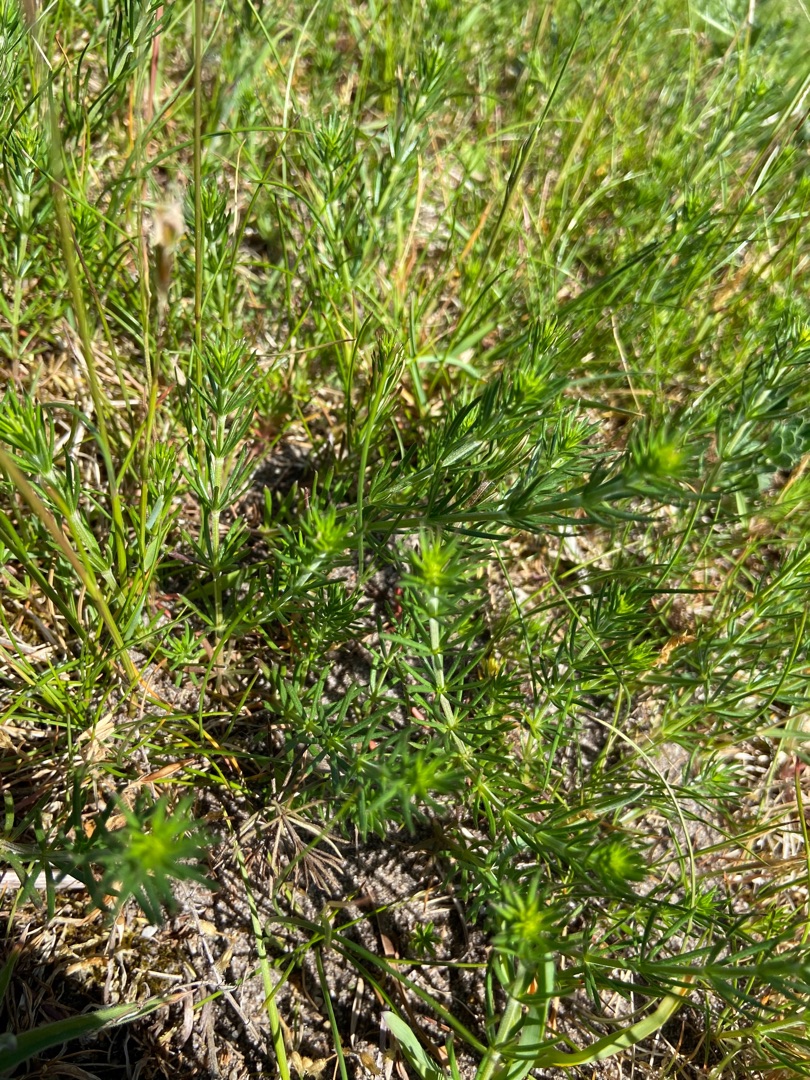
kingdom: Plantae
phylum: Tracheophyta
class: Magnoliopsida
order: Gentianales
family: Rubiaceae
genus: Galium
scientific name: Galium verum
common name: Gul snerre
